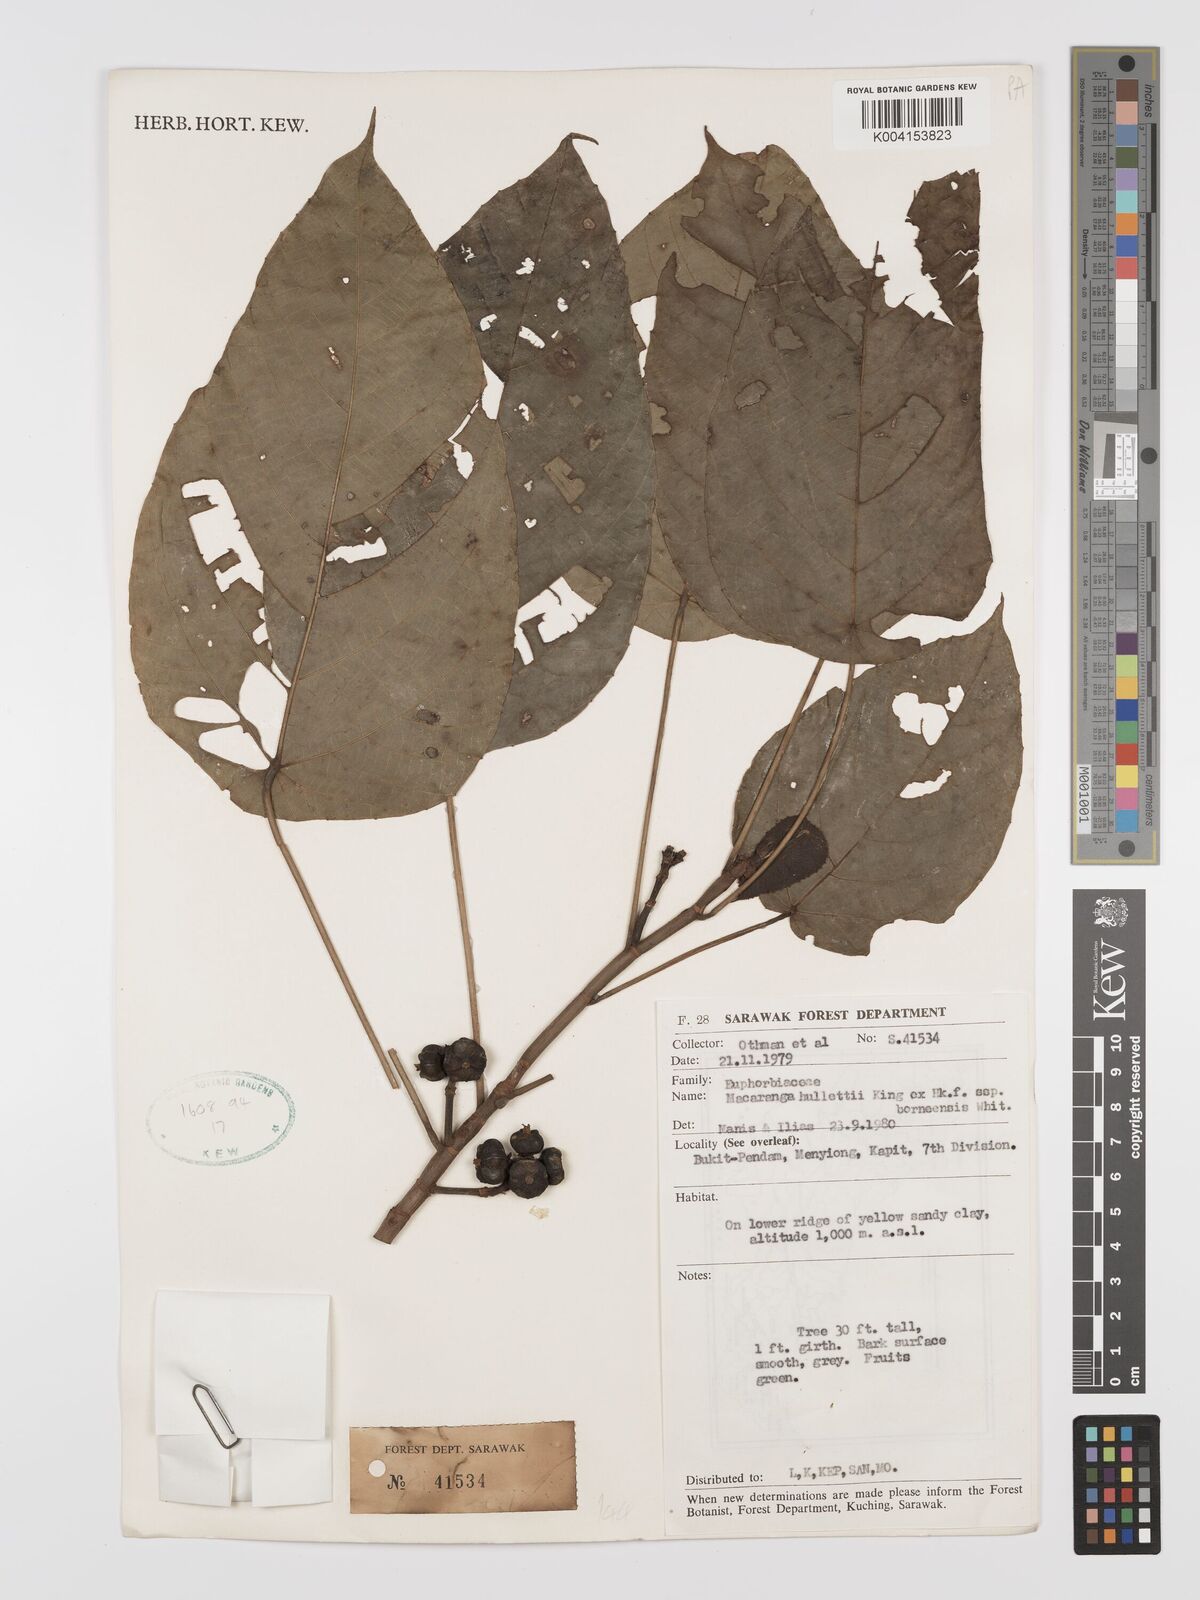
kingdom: Plantae
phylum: Tracheophyta
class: Magnoliopsida
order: Malpighiales
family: Euphorbiaceae
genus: Macaranga
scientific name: Macaranga hullettii
